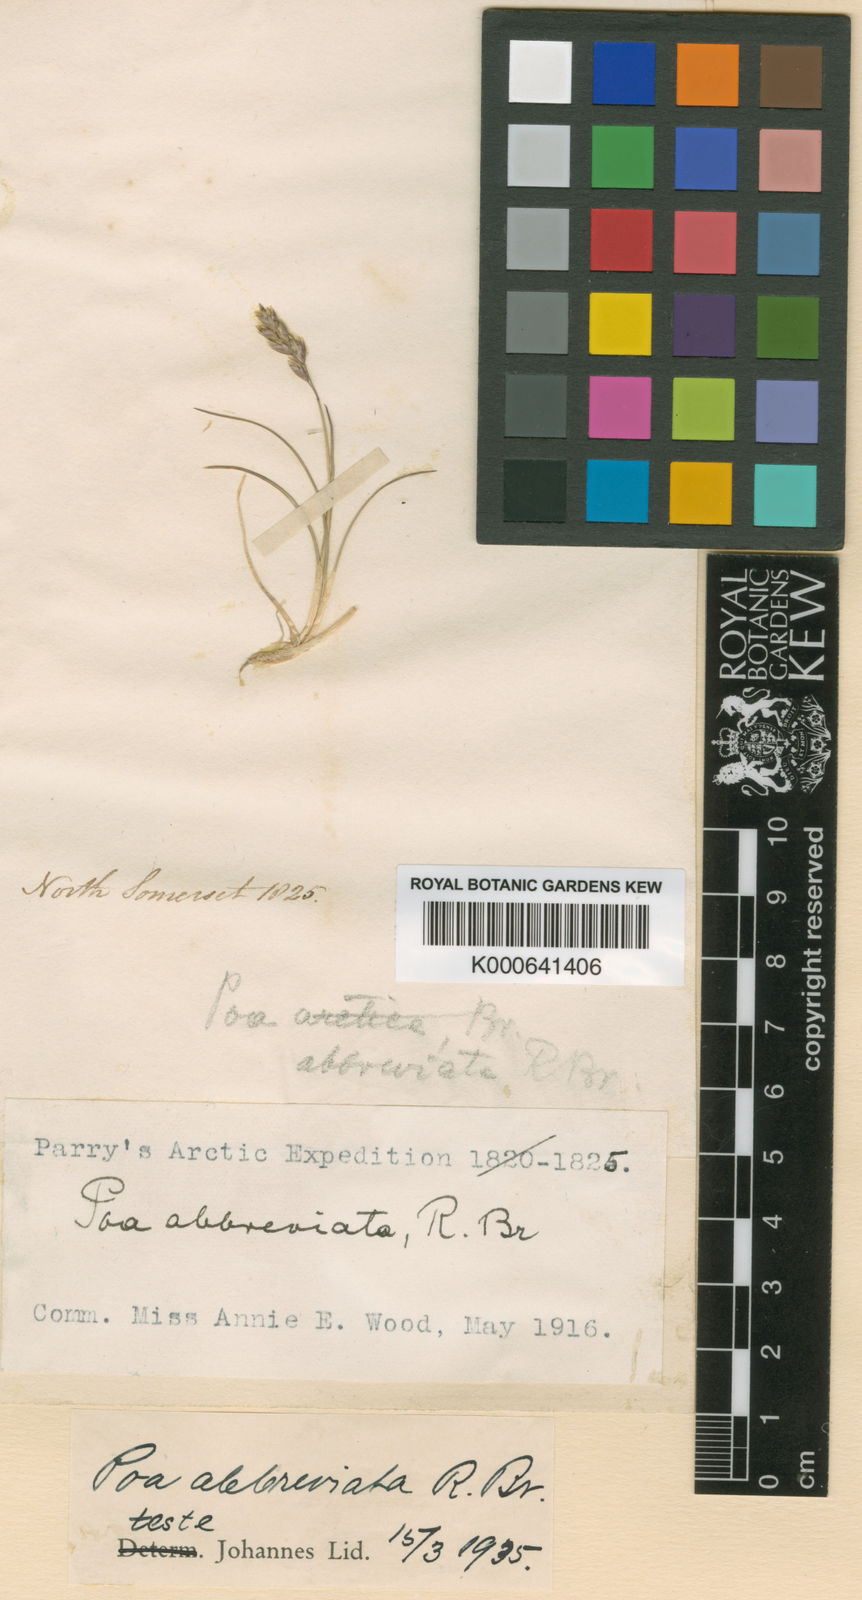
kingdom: Plantae
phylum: Tracheophyta
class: Liliopsida
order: Poales
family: Poaceae
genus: Poa
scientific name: Poa abbreviata
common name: Abbreviated bluegrass
